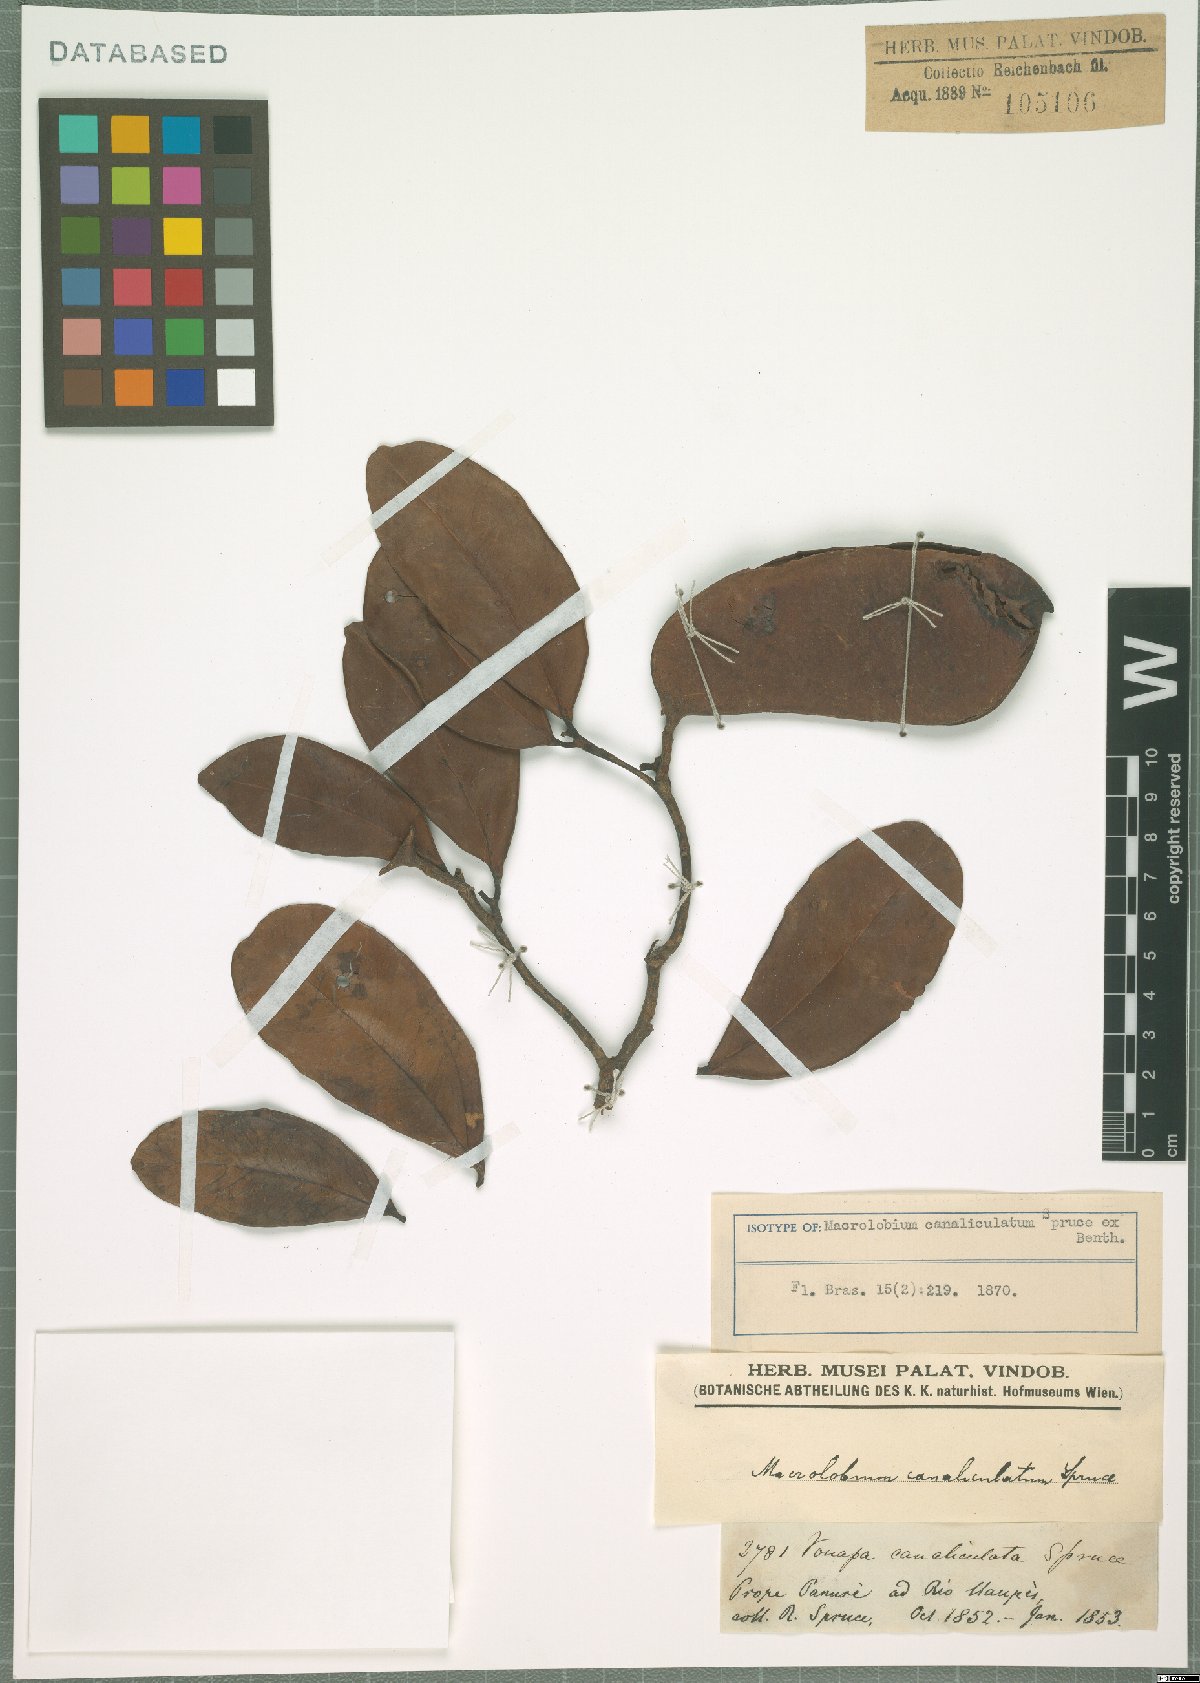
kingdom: Plantae
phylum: Tracheophyta
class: Magnoliopsida
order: Fabales
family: Fabaceae
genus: Macrolobium
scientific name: Macrolobium canaliculatum
